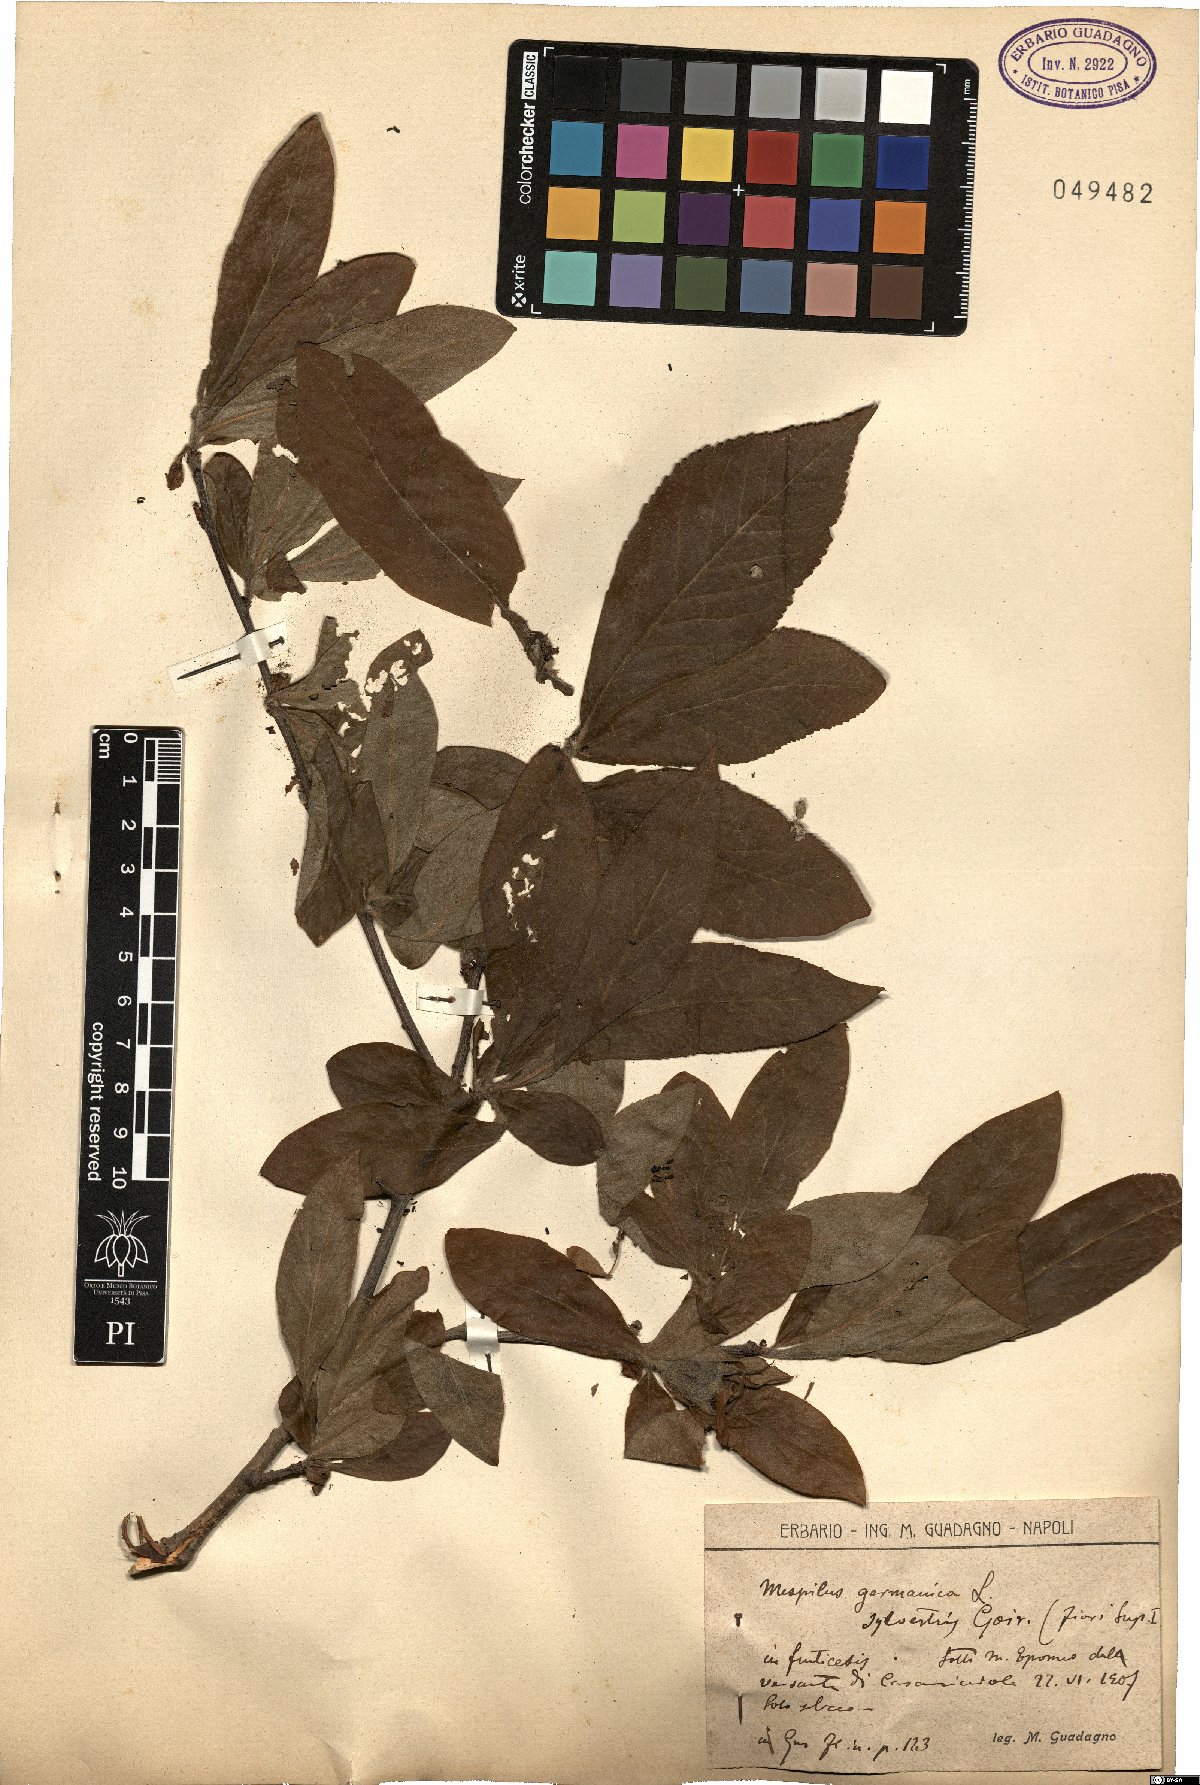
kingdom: Plantae
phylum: Tracheophyta
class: Magnoliopsida
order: Rosales
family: Rosaceae
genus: Mespilus
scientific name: Mespilus germanica
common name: Medlar
